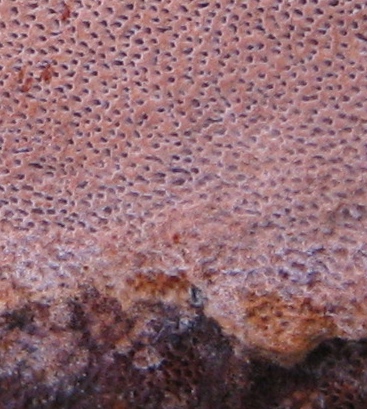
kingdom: Fungi
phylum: Basidiomycota
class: Agaricomycetes
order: Hymenochaetales
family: Hymenochaetaceae
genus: Fuscoporia
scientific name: Fuscoporia ferrea
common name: skorpe-ildporesvamp
